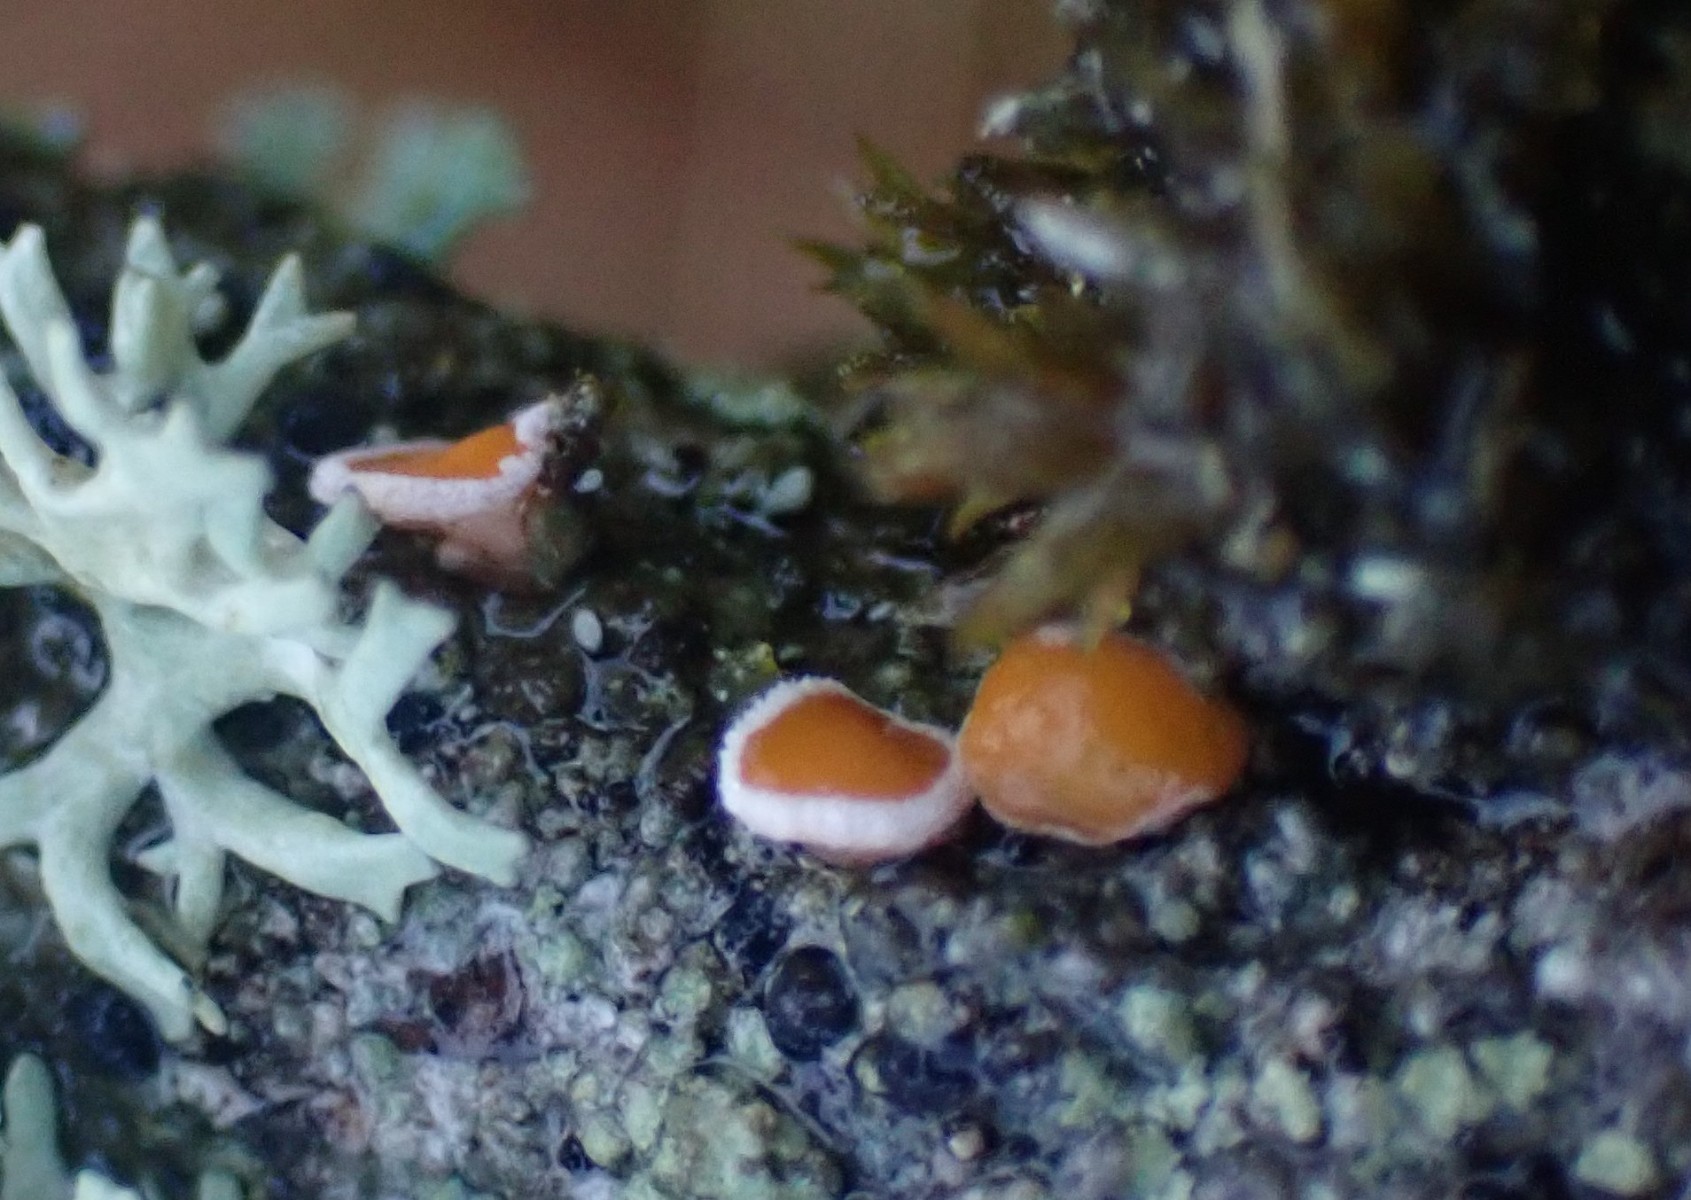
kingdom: Fungi
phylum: Ascomycota
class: Leotiomycetes
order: Helotiales
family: Lachnaceae
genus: Lachnellula
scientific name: Lachnellula subtilissima
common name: gran-frynseskive
